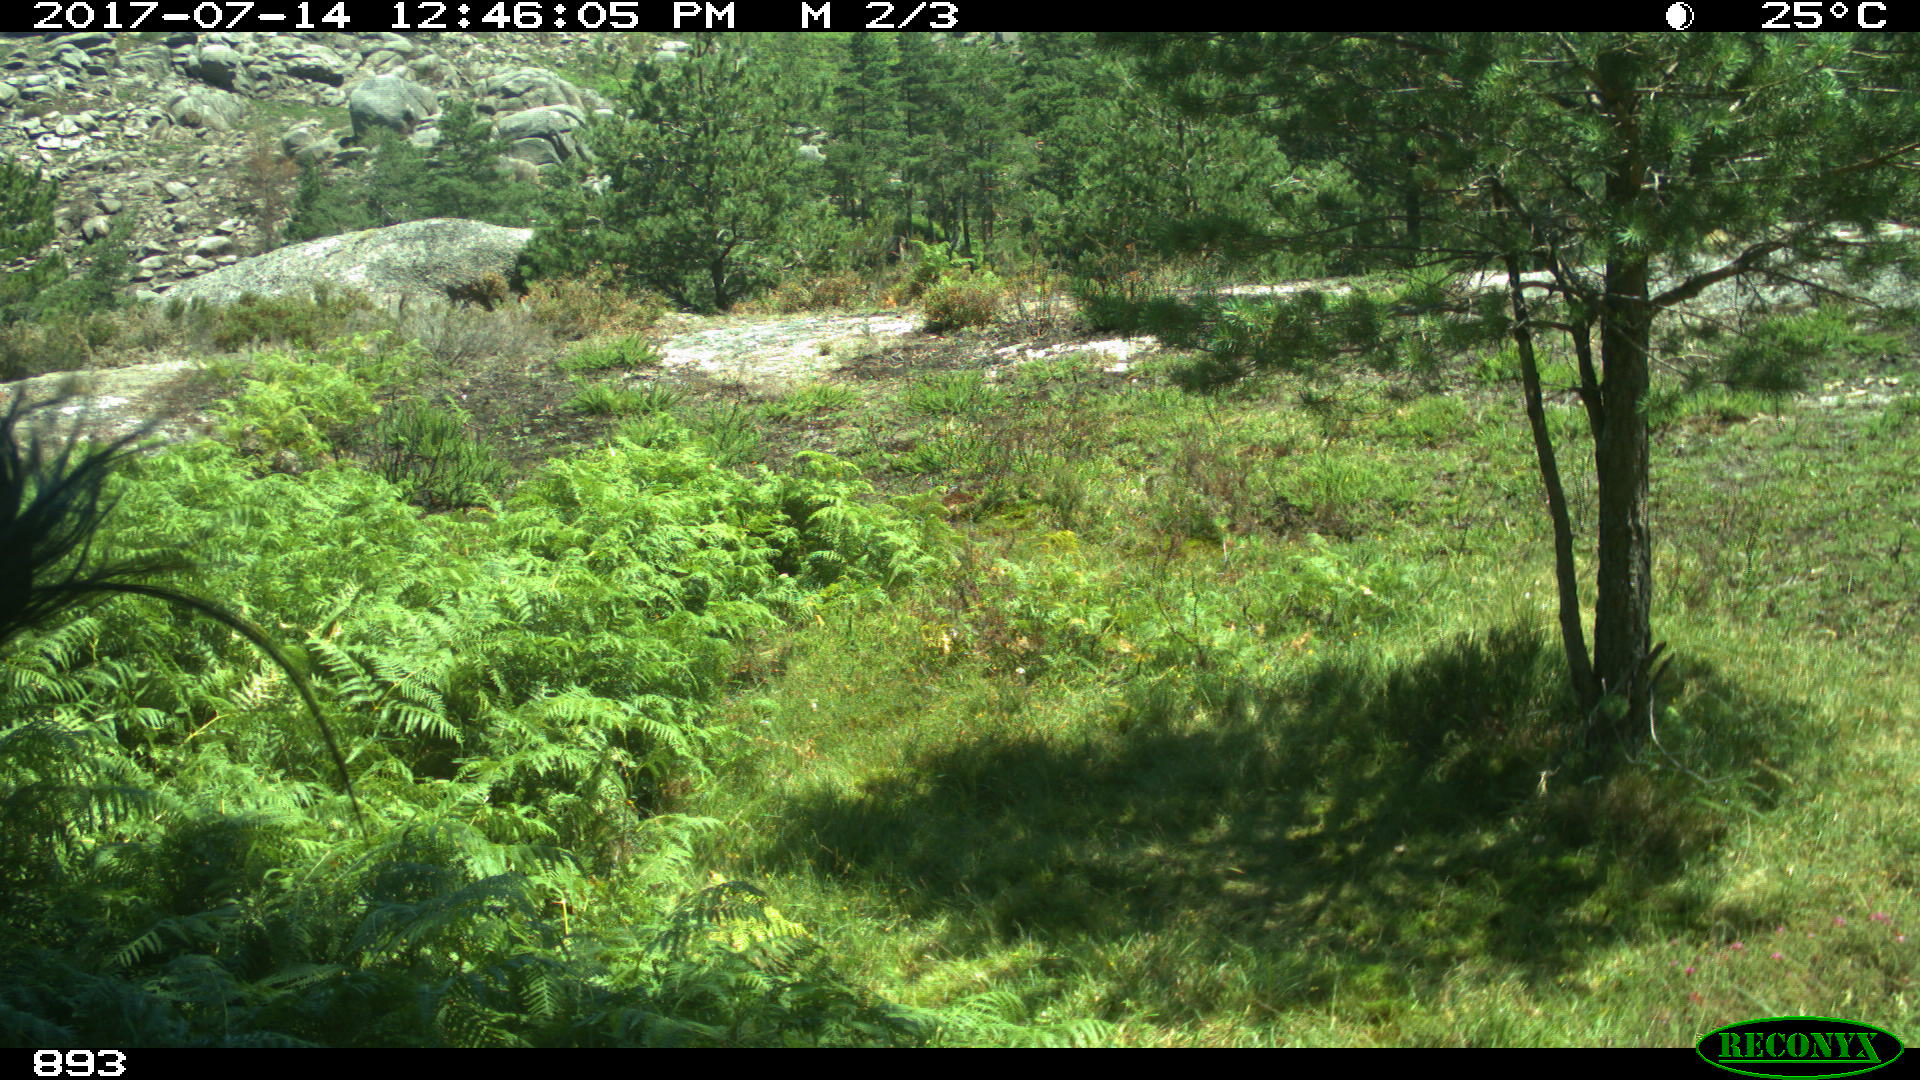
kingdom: Animalia
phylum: Chordata
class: Mammalia
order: Perissodactyla
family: Equidae
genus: Equus
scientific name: Equus caballus
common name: Horse
